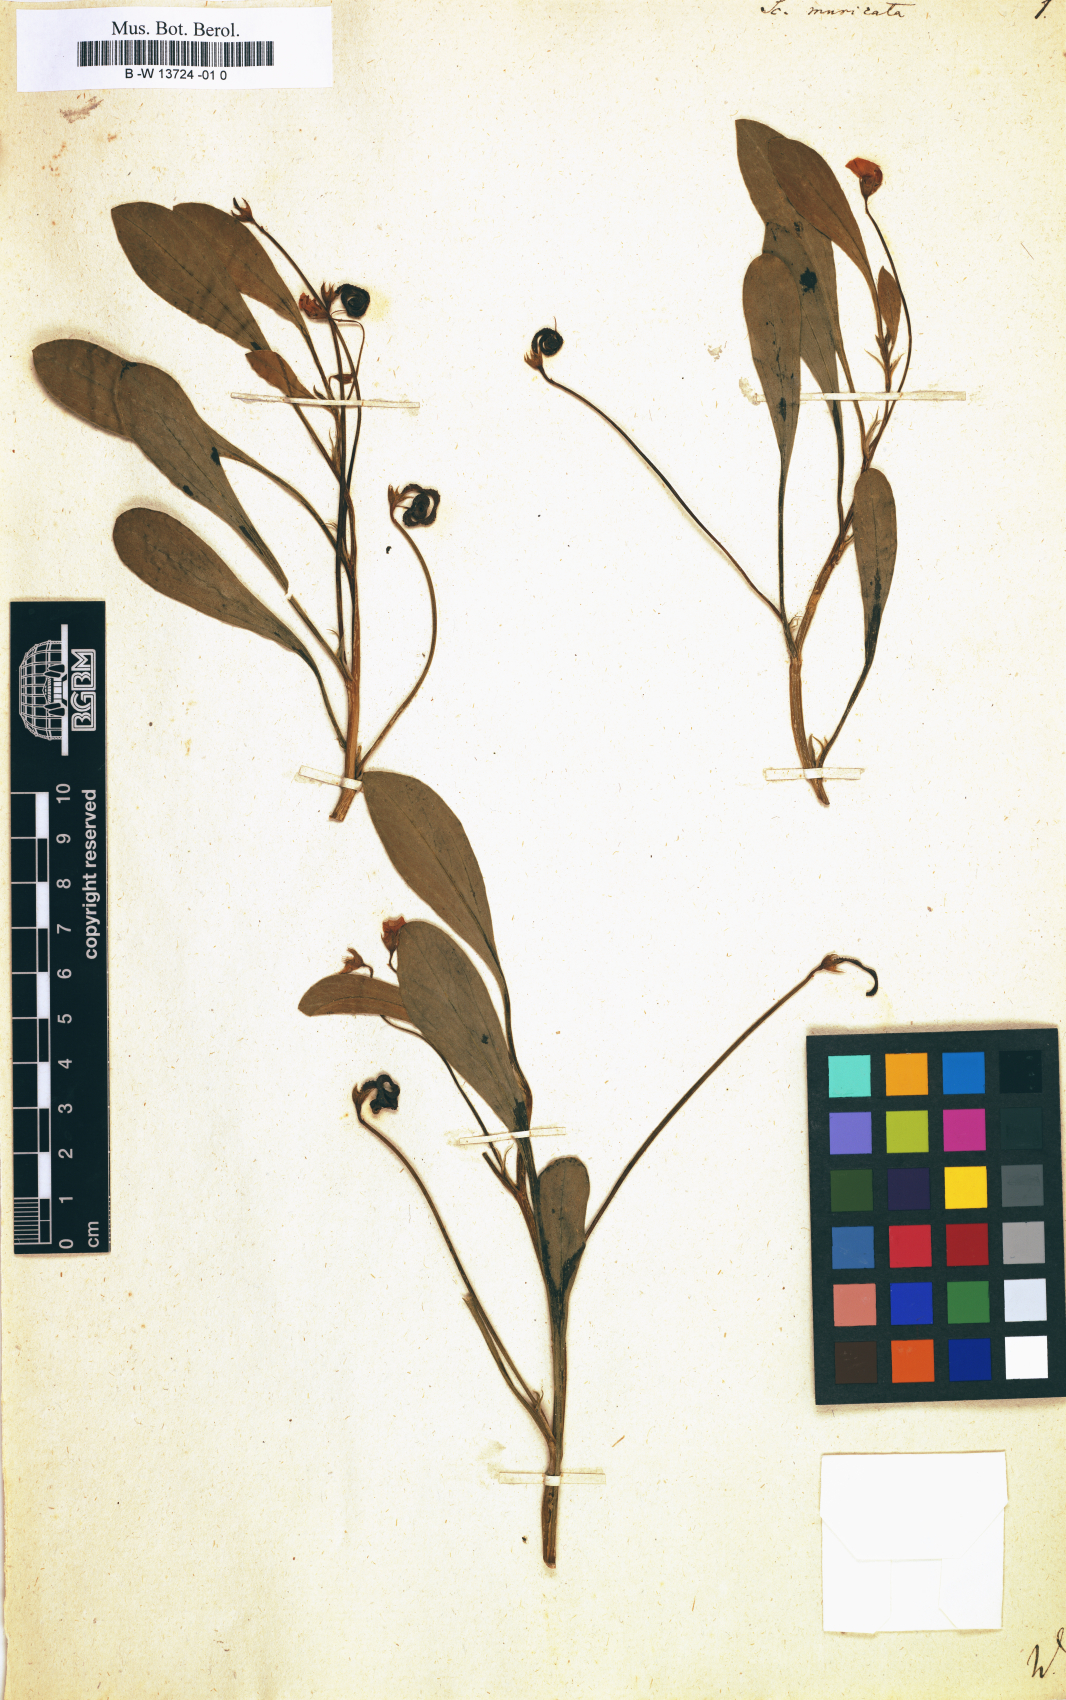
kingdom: Plantae
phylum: Tracheophyta
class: Magnoliopsida
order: Fabales
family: Fabaceae
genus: Scorpiurus
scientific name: Scorpiurus muricatus
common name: Caterpillar-plant
